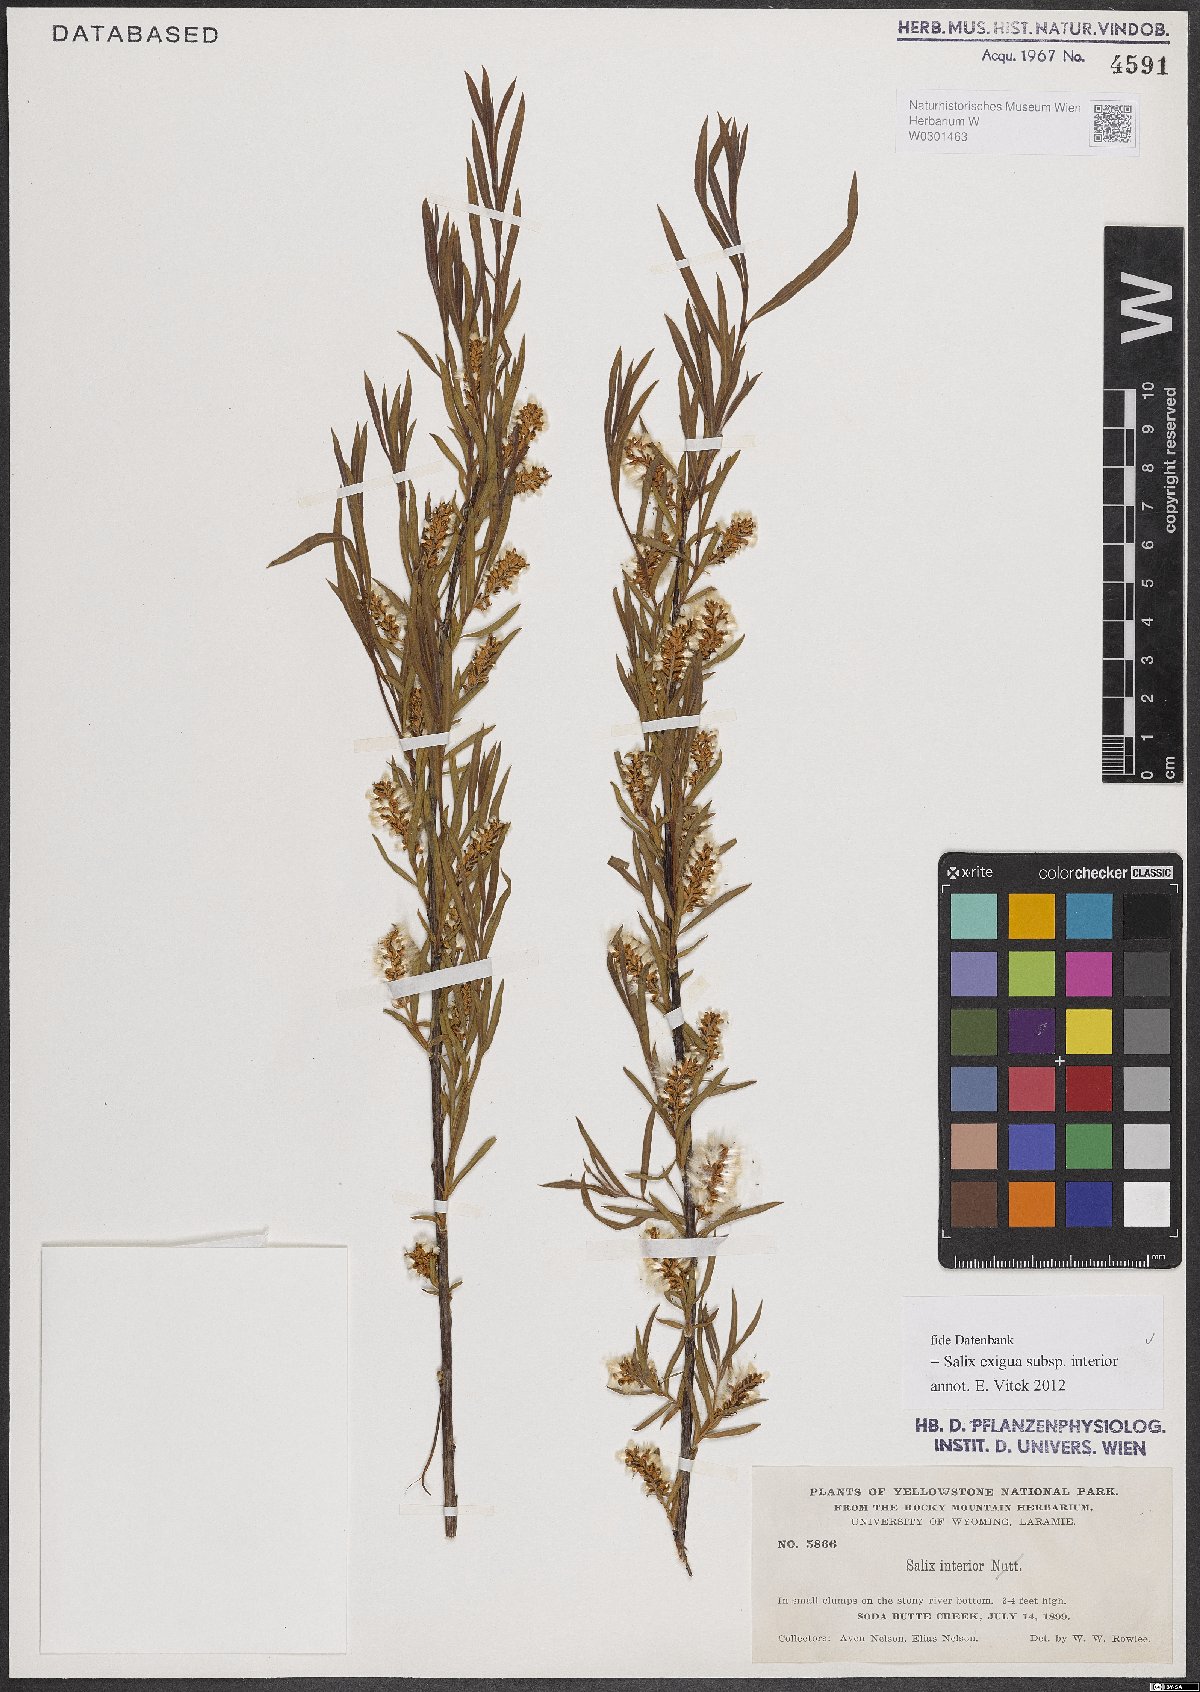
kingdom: Plantae
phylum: Tracheophyta
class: Magnoliopsida
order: Malpighiales
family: Salicaceae
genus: Salix
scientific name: Salix interior
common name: Sandbar willow
